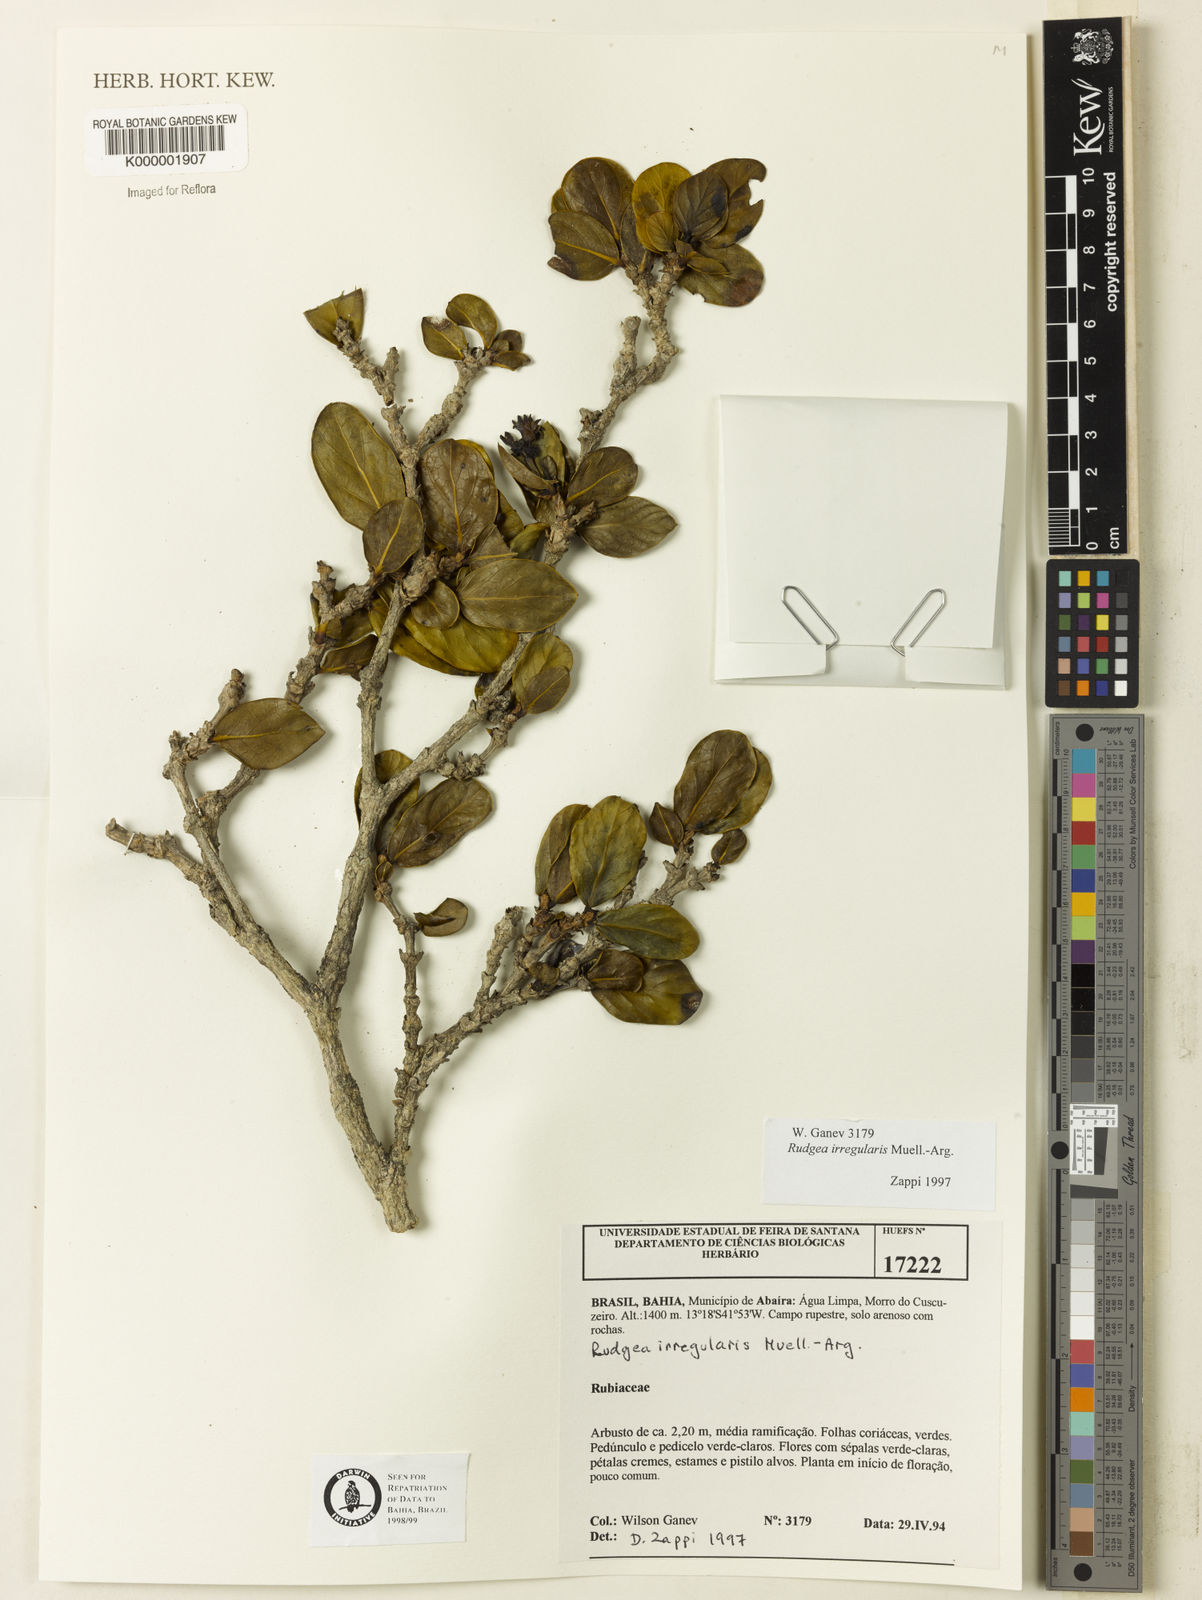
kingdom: Plantae
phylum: Tracheophyta
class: Magnoliopsida
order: Gentianales
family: Rubiaceae
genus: Rudgea
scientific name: Rudgea irregularis
